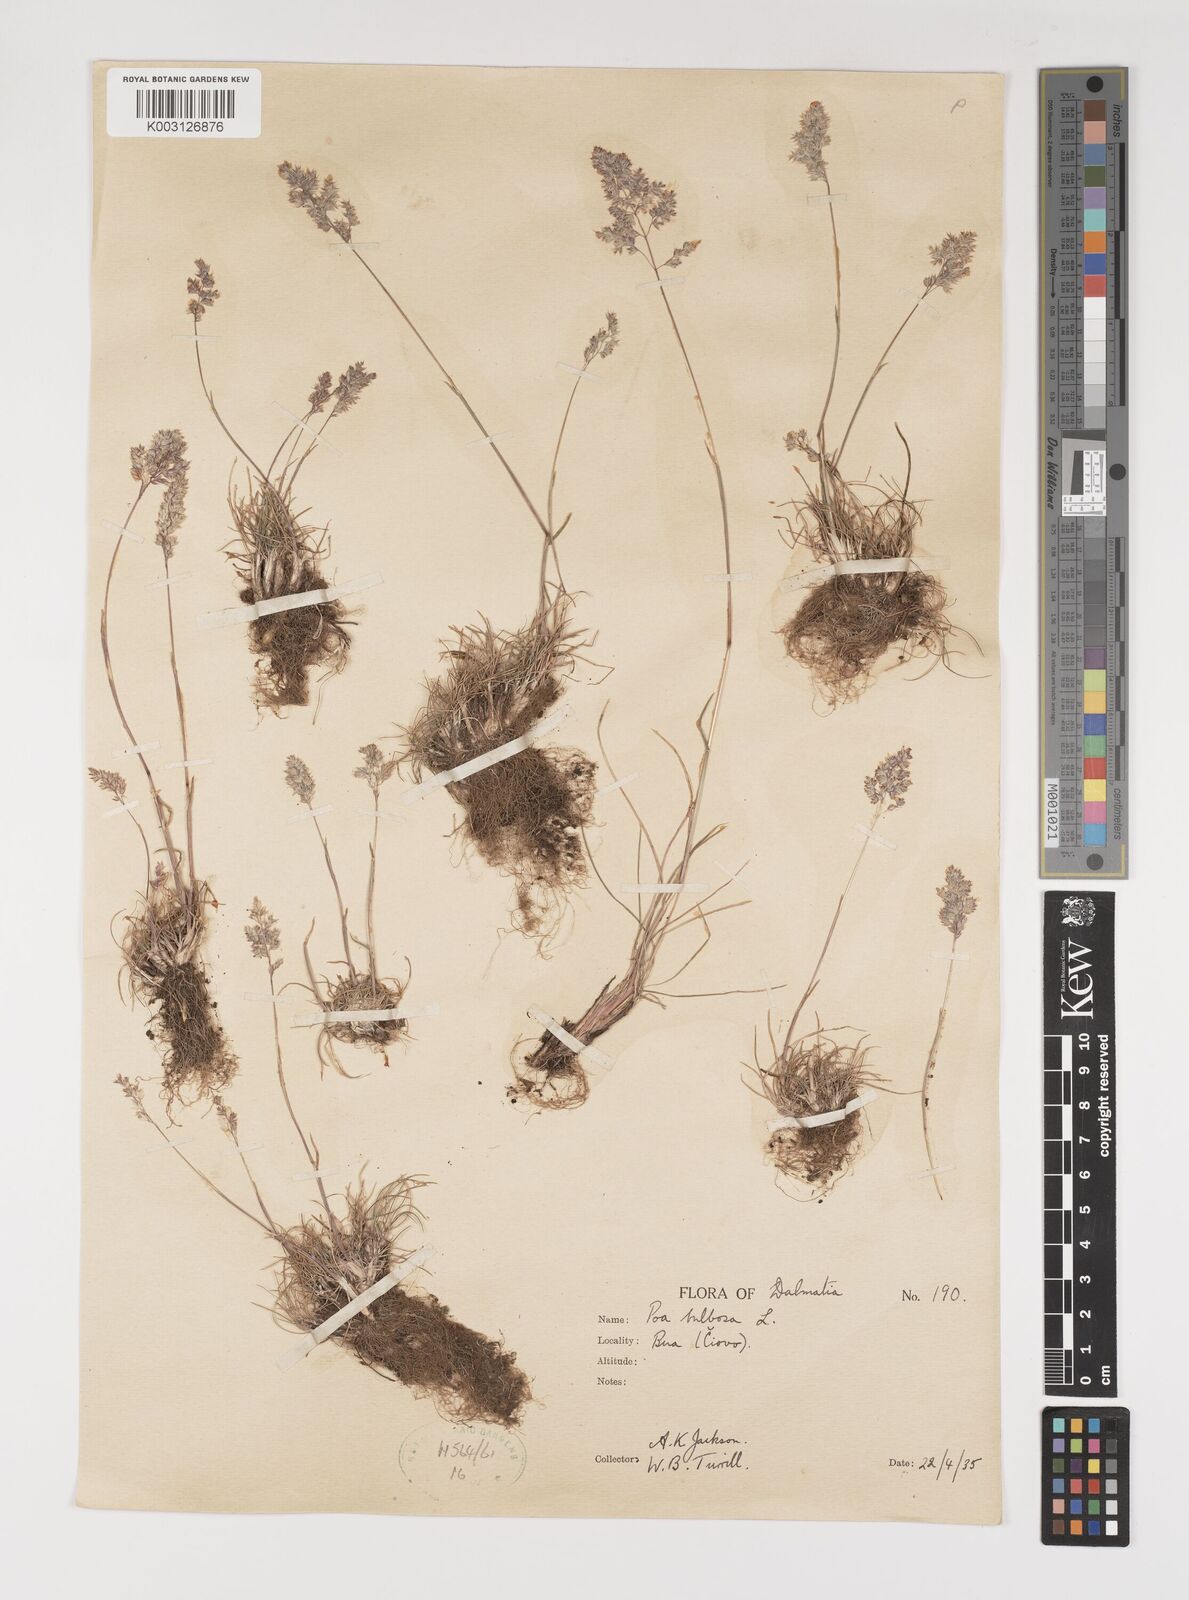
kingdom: Plantae
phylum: Tracheophyta
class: Liliopsida
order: Poales
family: Poaceae
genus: Poa
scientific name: Poa bulbosa
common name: Bulbous bluegrass
